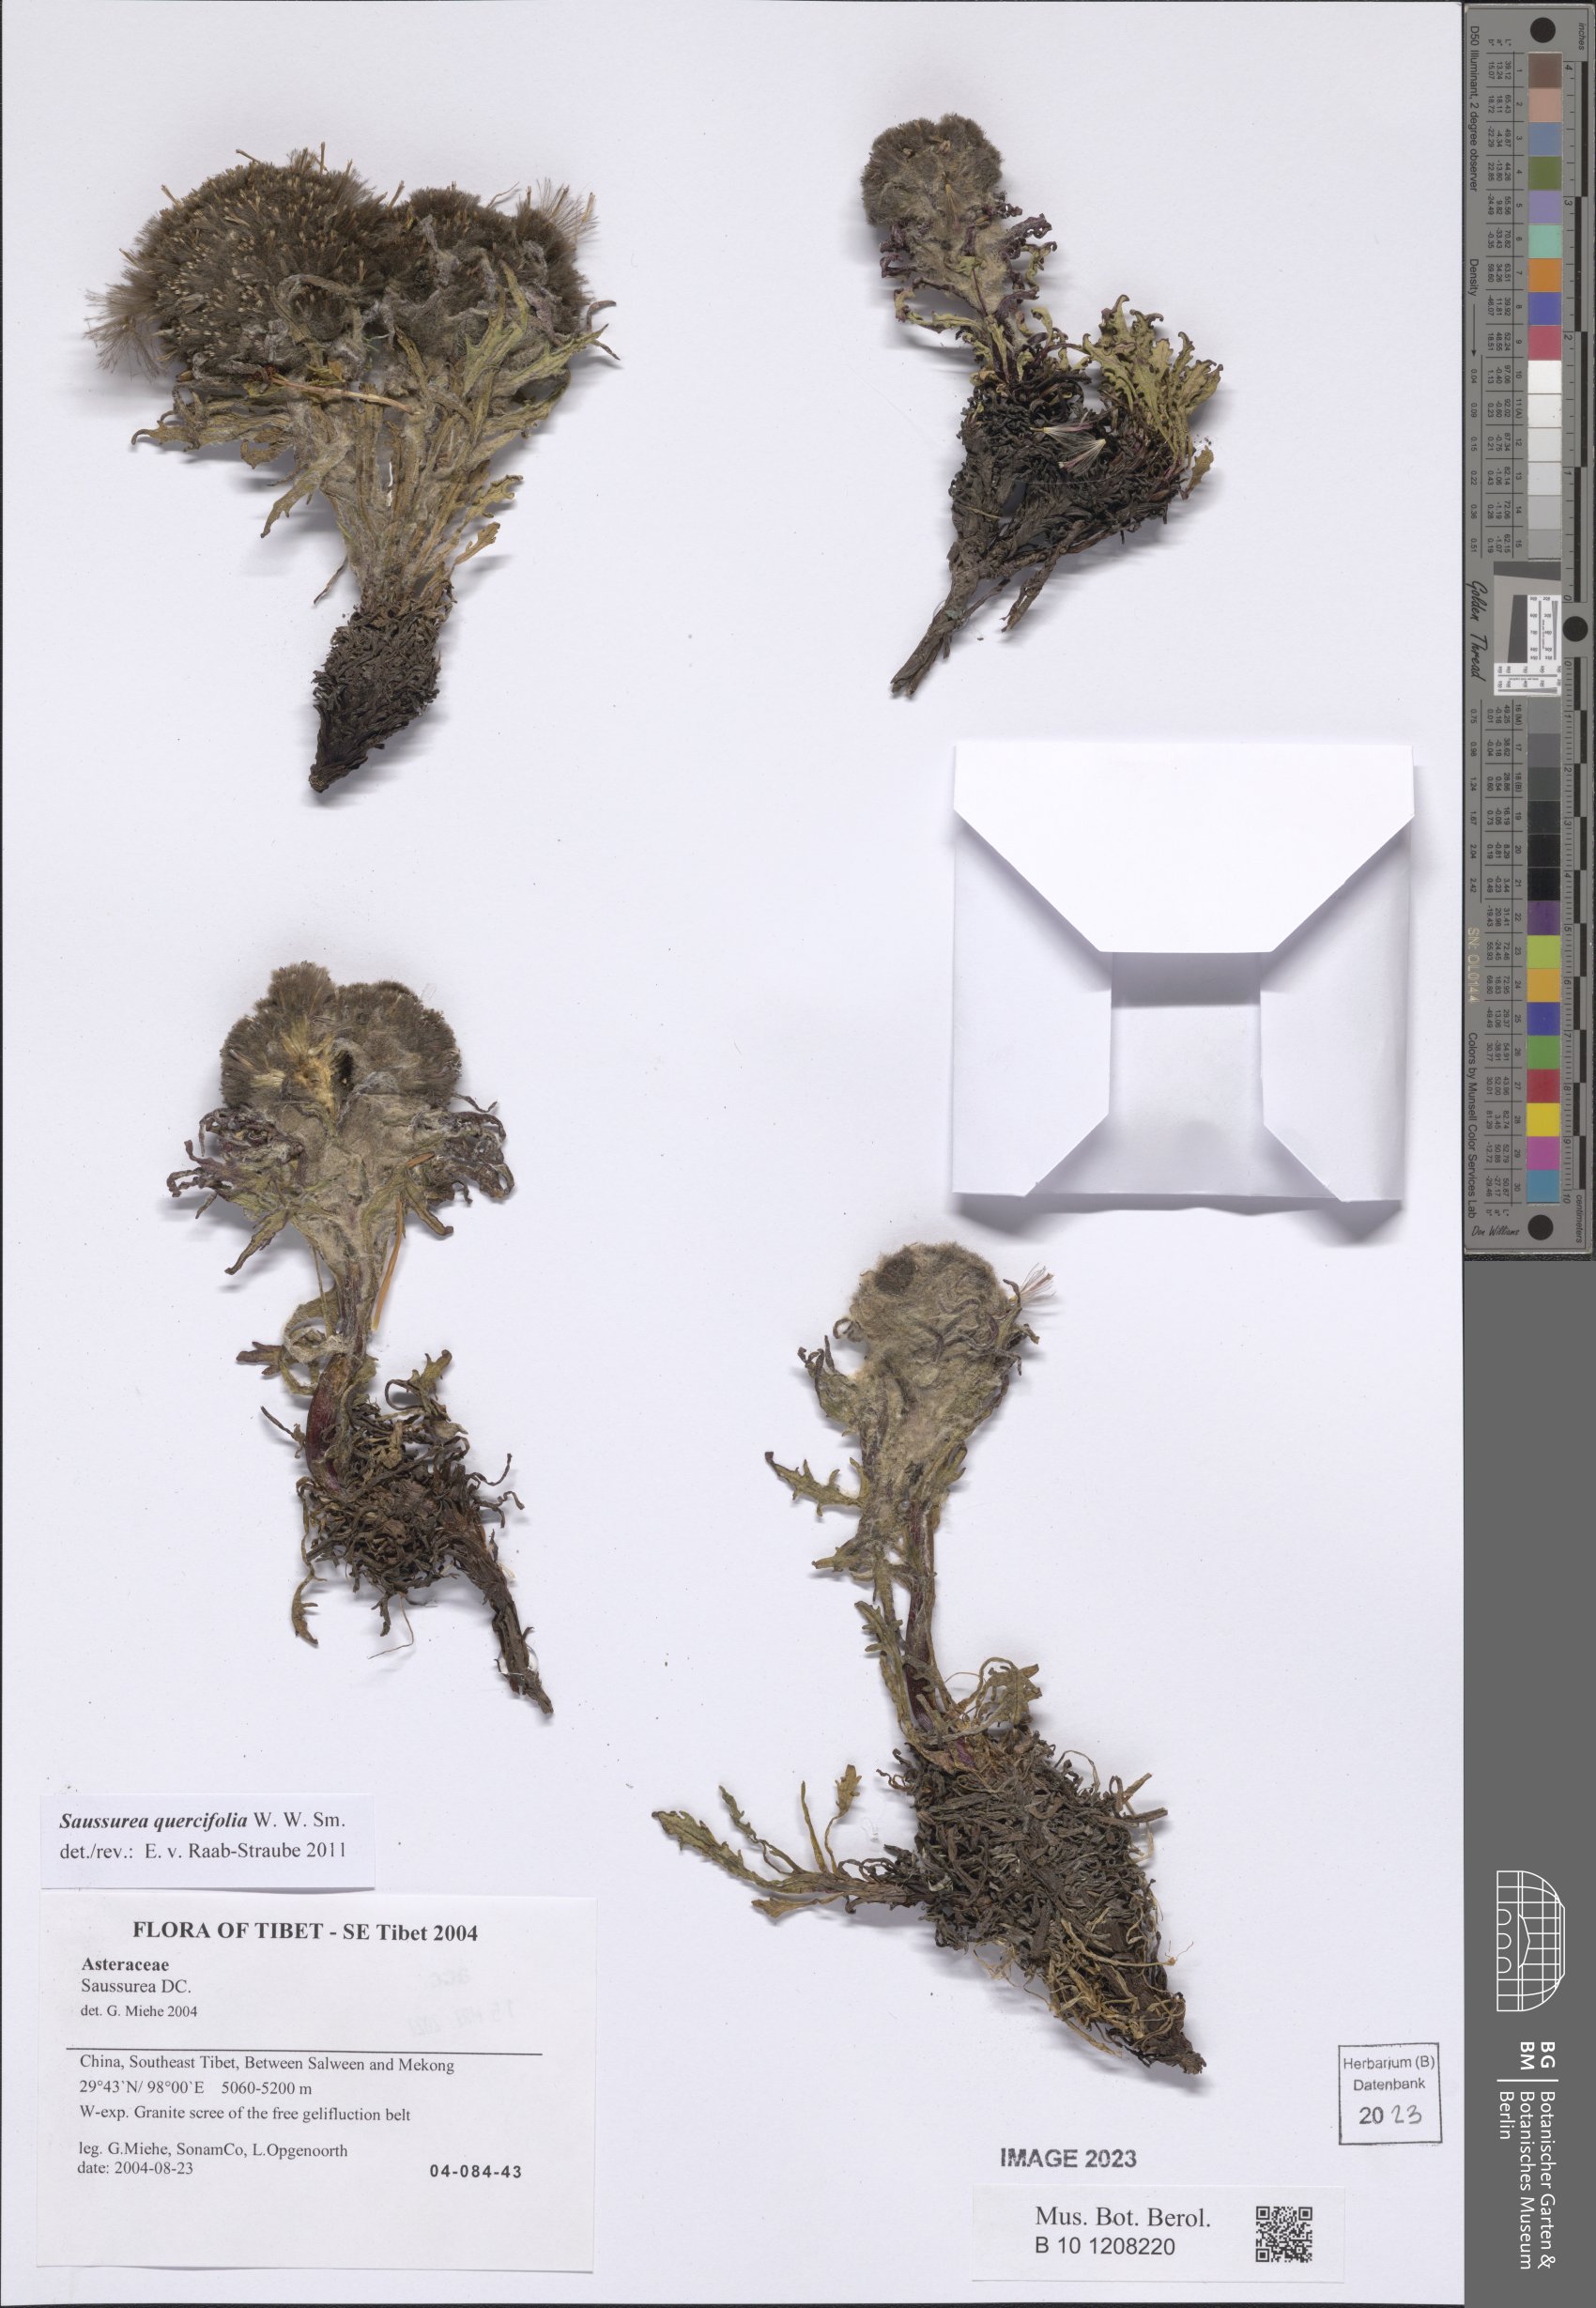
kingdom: Plantae
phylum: Tracheophyta
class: Magnoliopsida
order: Asterales
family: Asteraceae
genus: Saussurea
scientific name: Saussurea quercifolia
